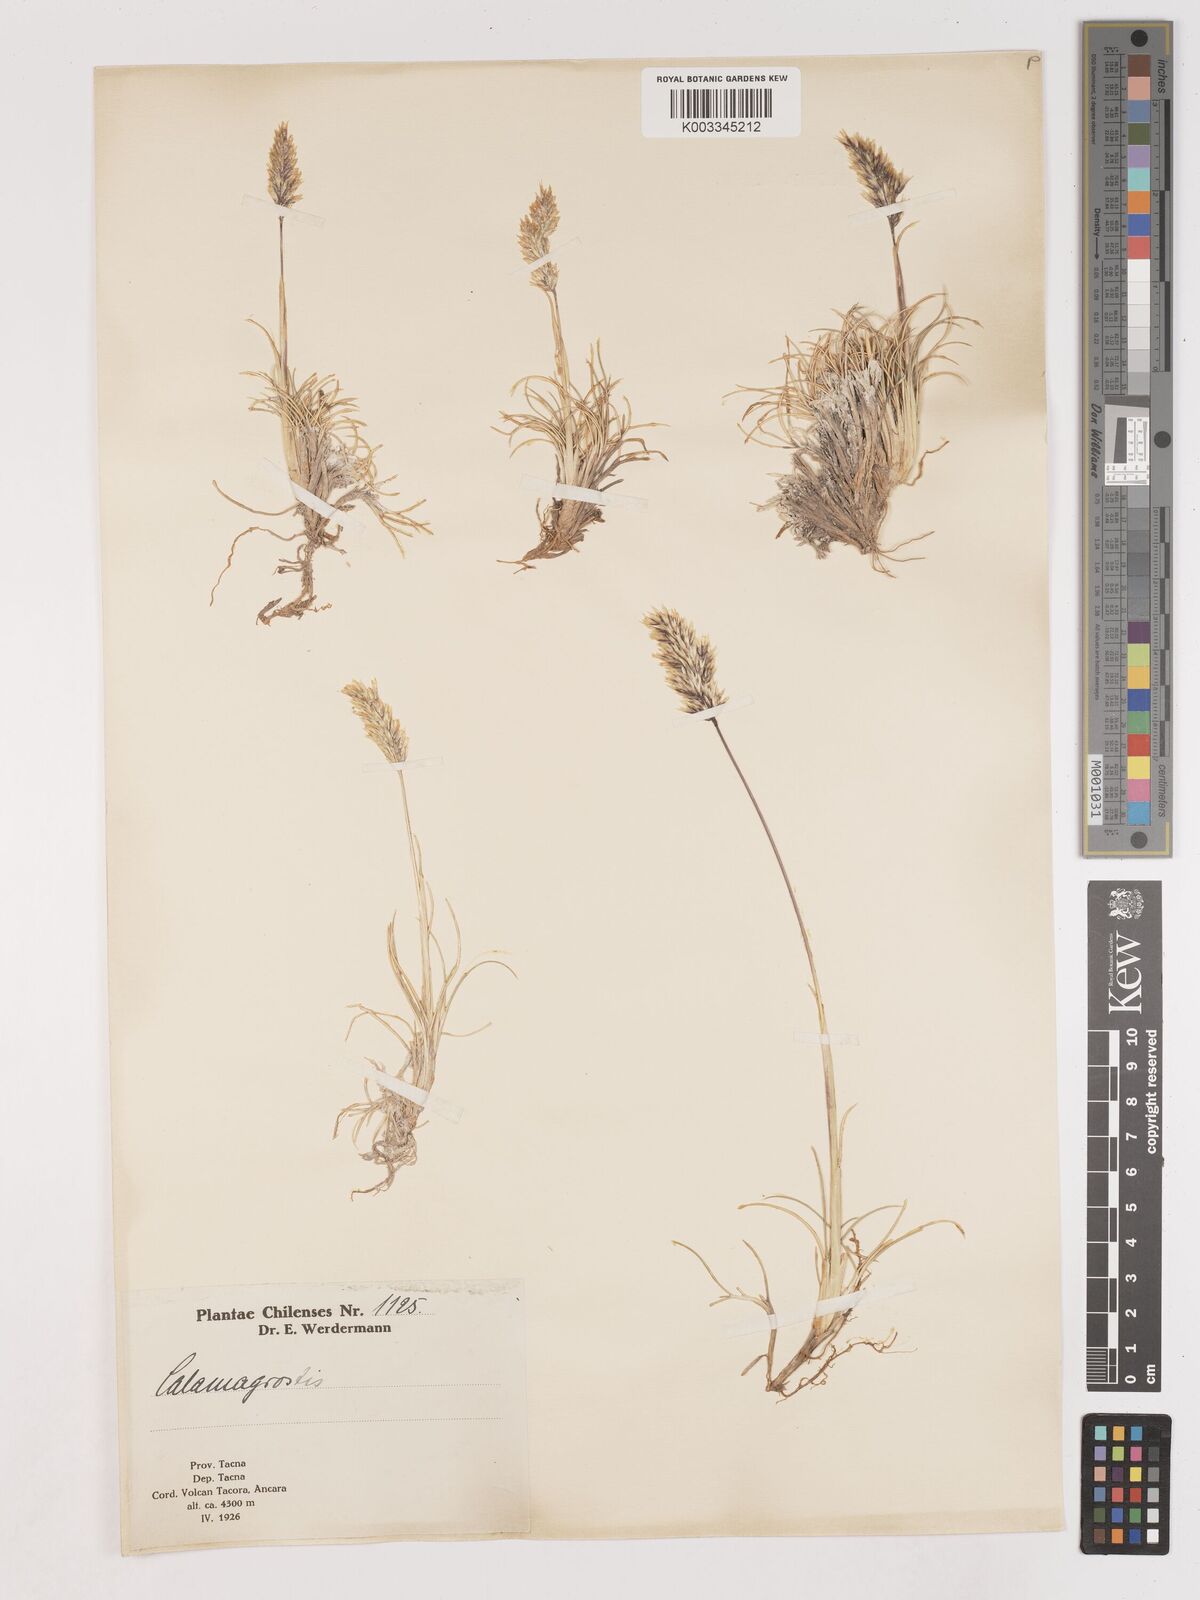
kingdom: Plantae
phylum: Tracheophyta
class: Liliopsida
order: Poales
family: Poaceae
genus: Cinnagrostis
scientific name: Cinnagrostis velutina
